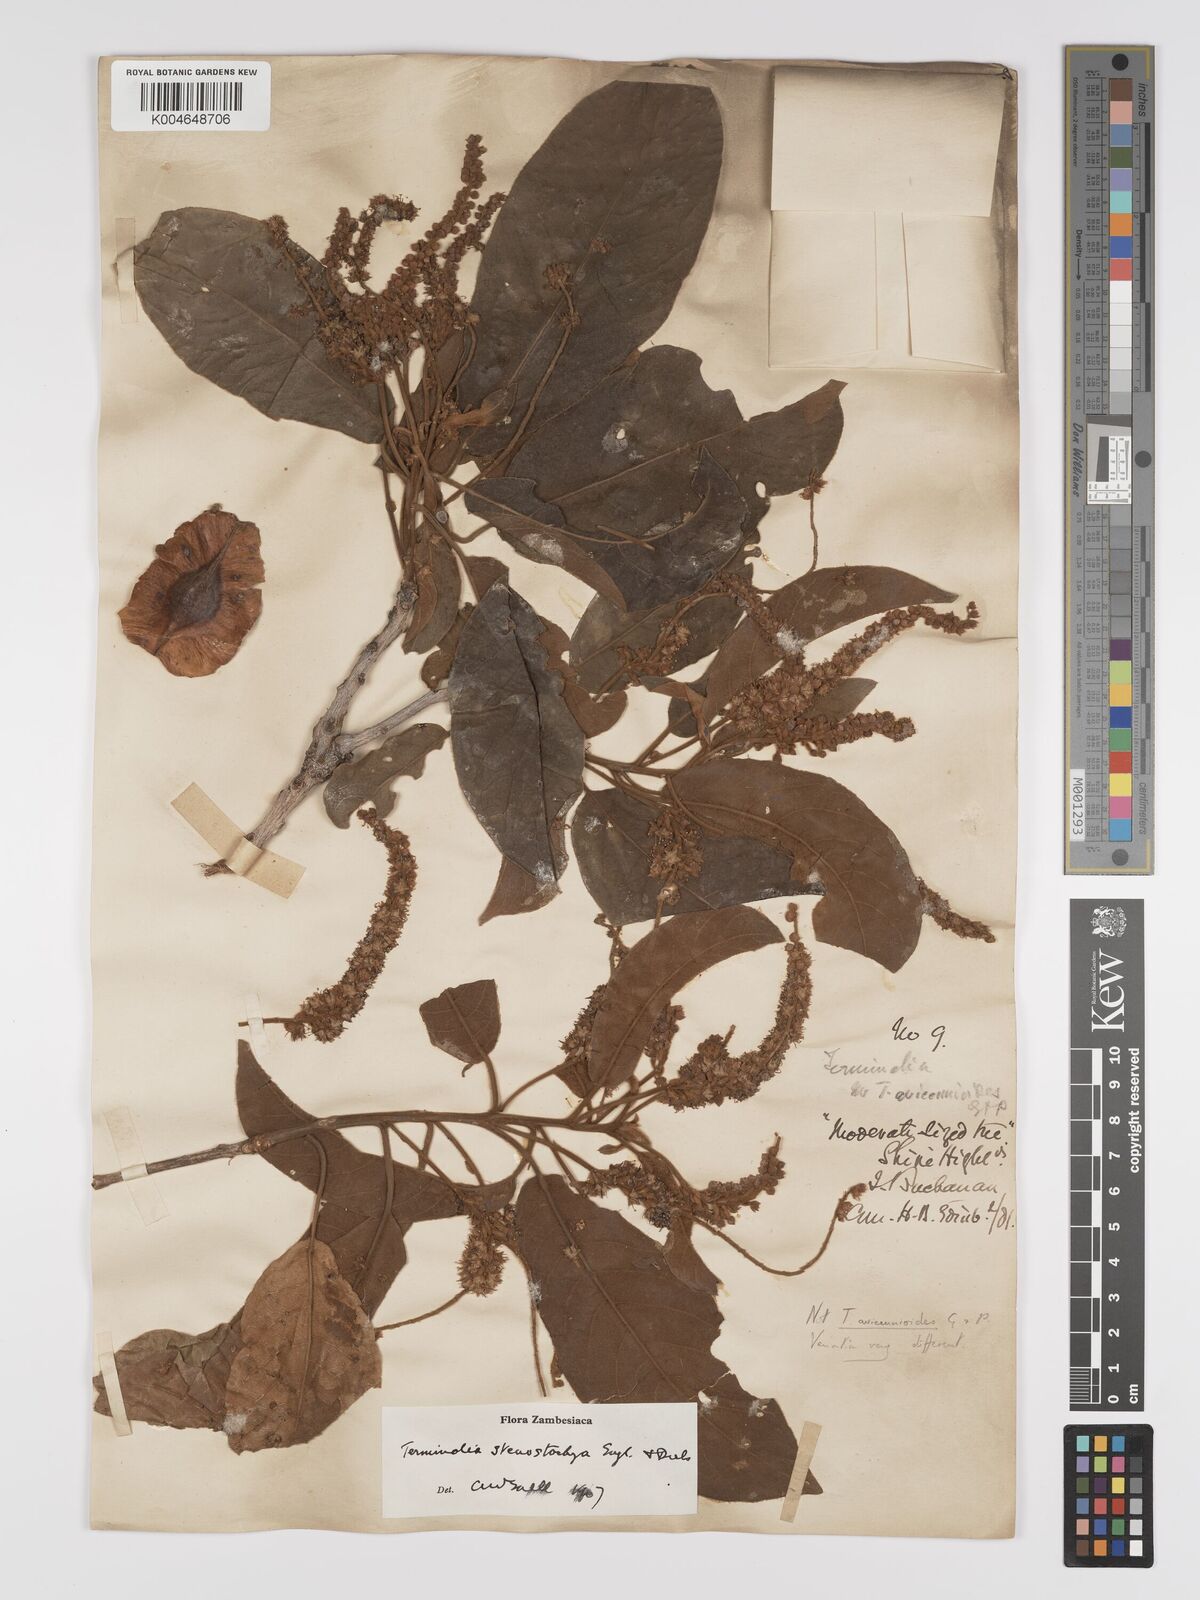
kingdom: Plantae
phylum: Tracheophyta
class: Magnoliopsida
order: Myrtales
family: Combretaceae
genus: Terminalia
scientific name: Terminalia stenostachya
